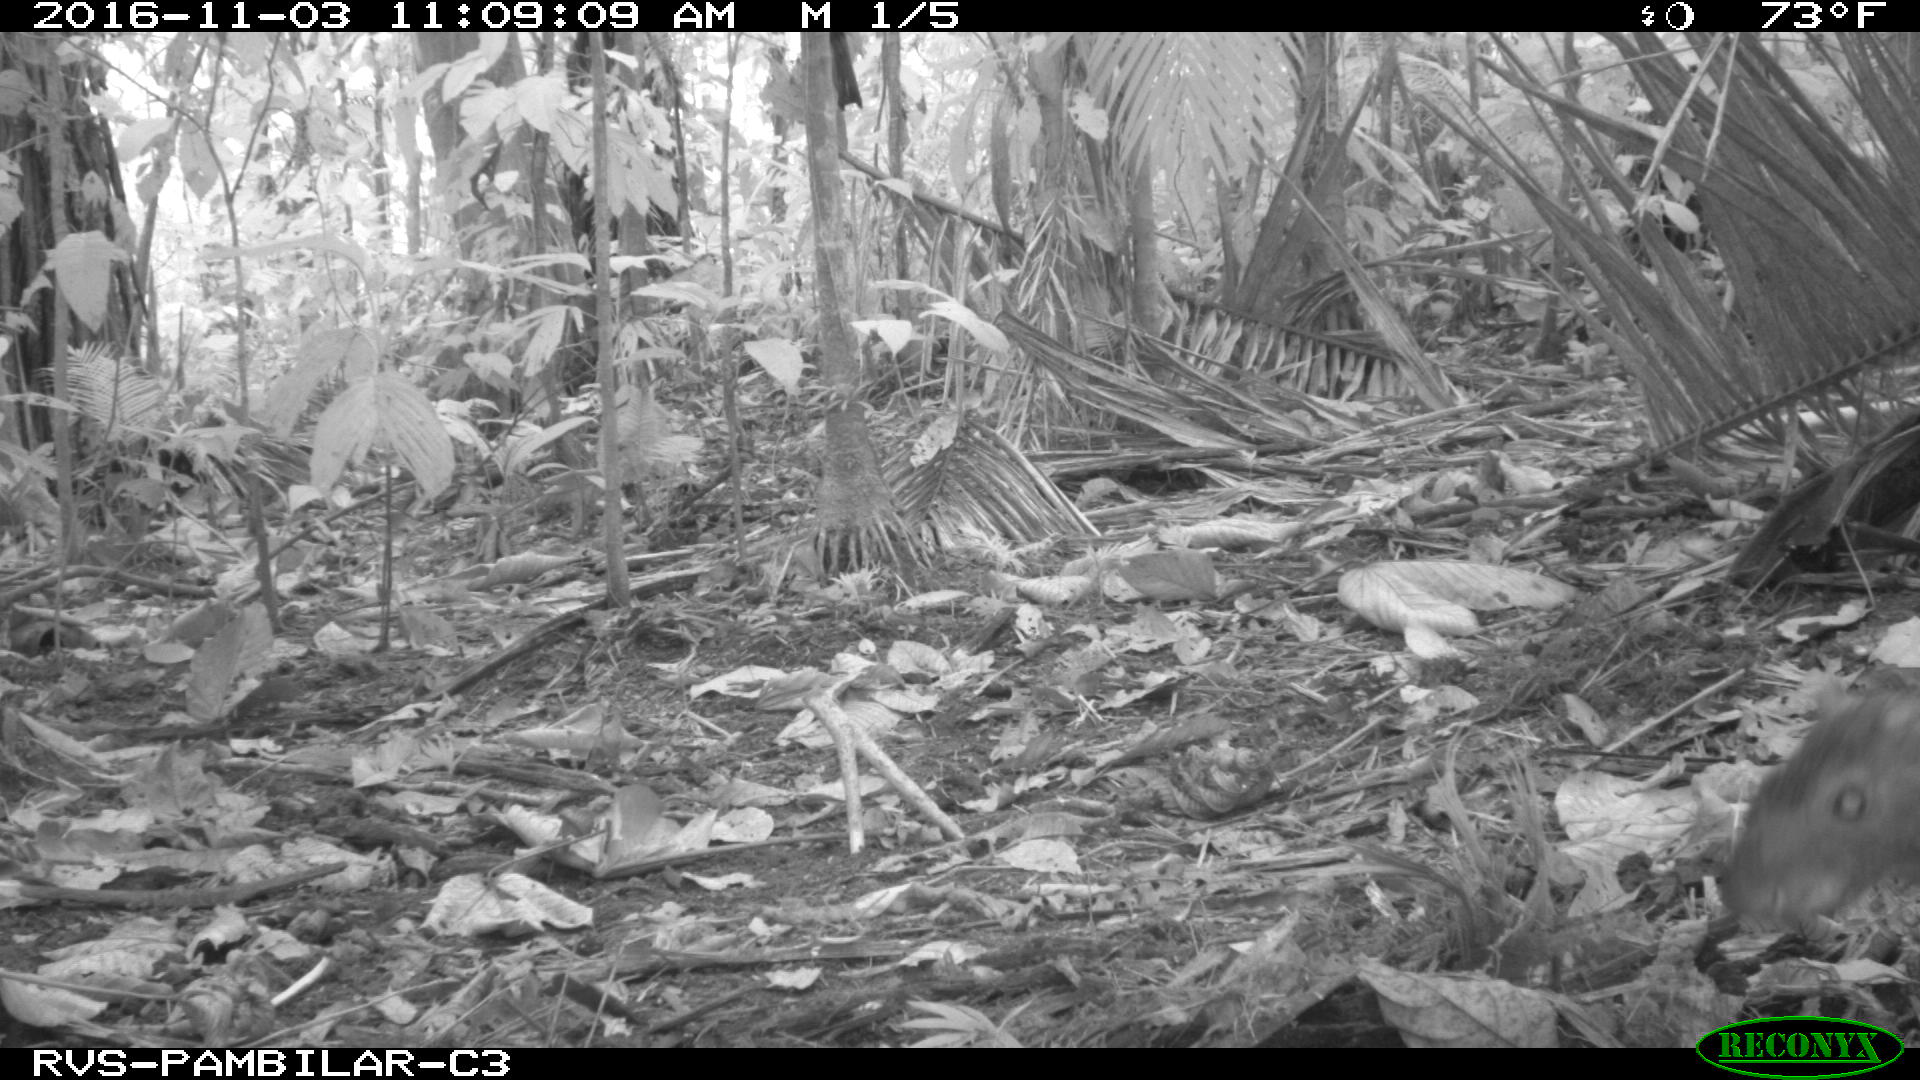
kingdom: Animalia
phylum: Chordata
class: Mammalia
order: Rodentia
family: Dasyproctidae
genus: Dasyprocta
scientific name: Dasyprocta punctata
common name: Central american agouti
